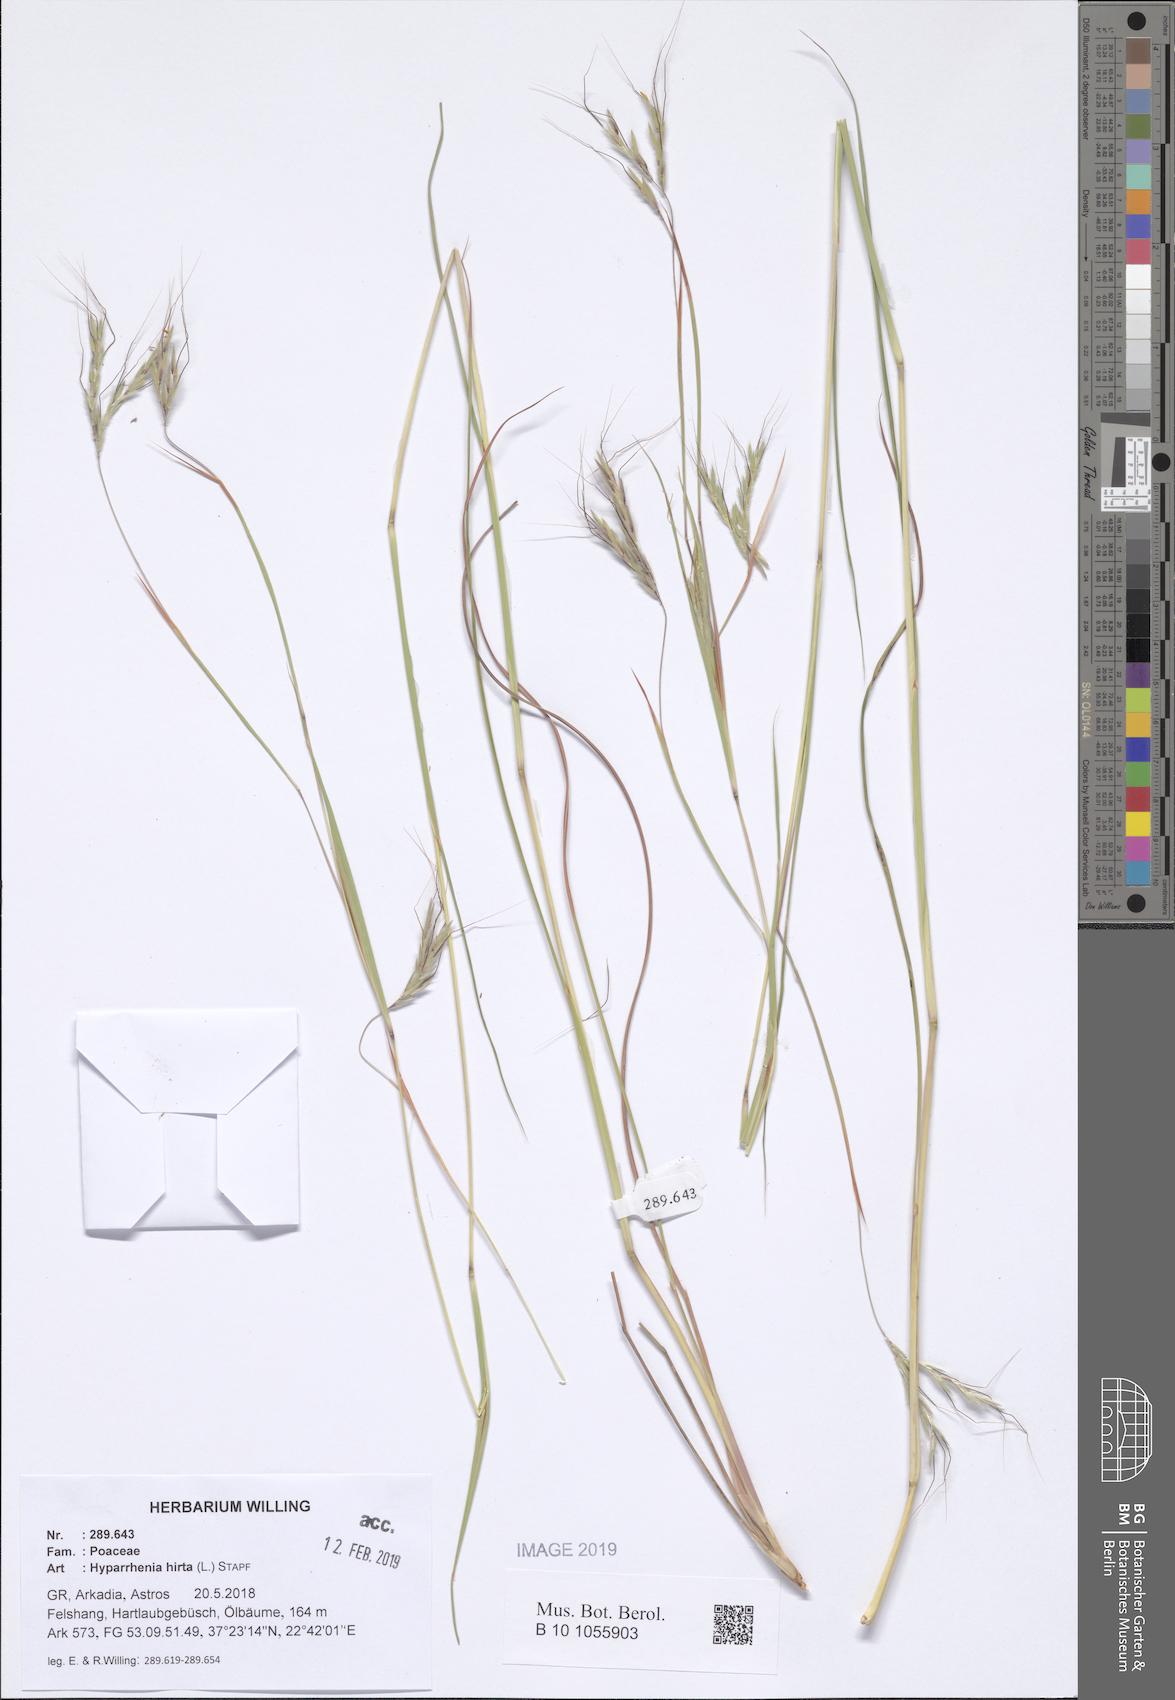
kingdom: Plantae
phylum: Tracheophyta
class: Liliopsida
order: Poales
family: Poaceae
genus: Hyparrhenia
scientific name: Hyparrhenia hirta
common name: Thatching grass
